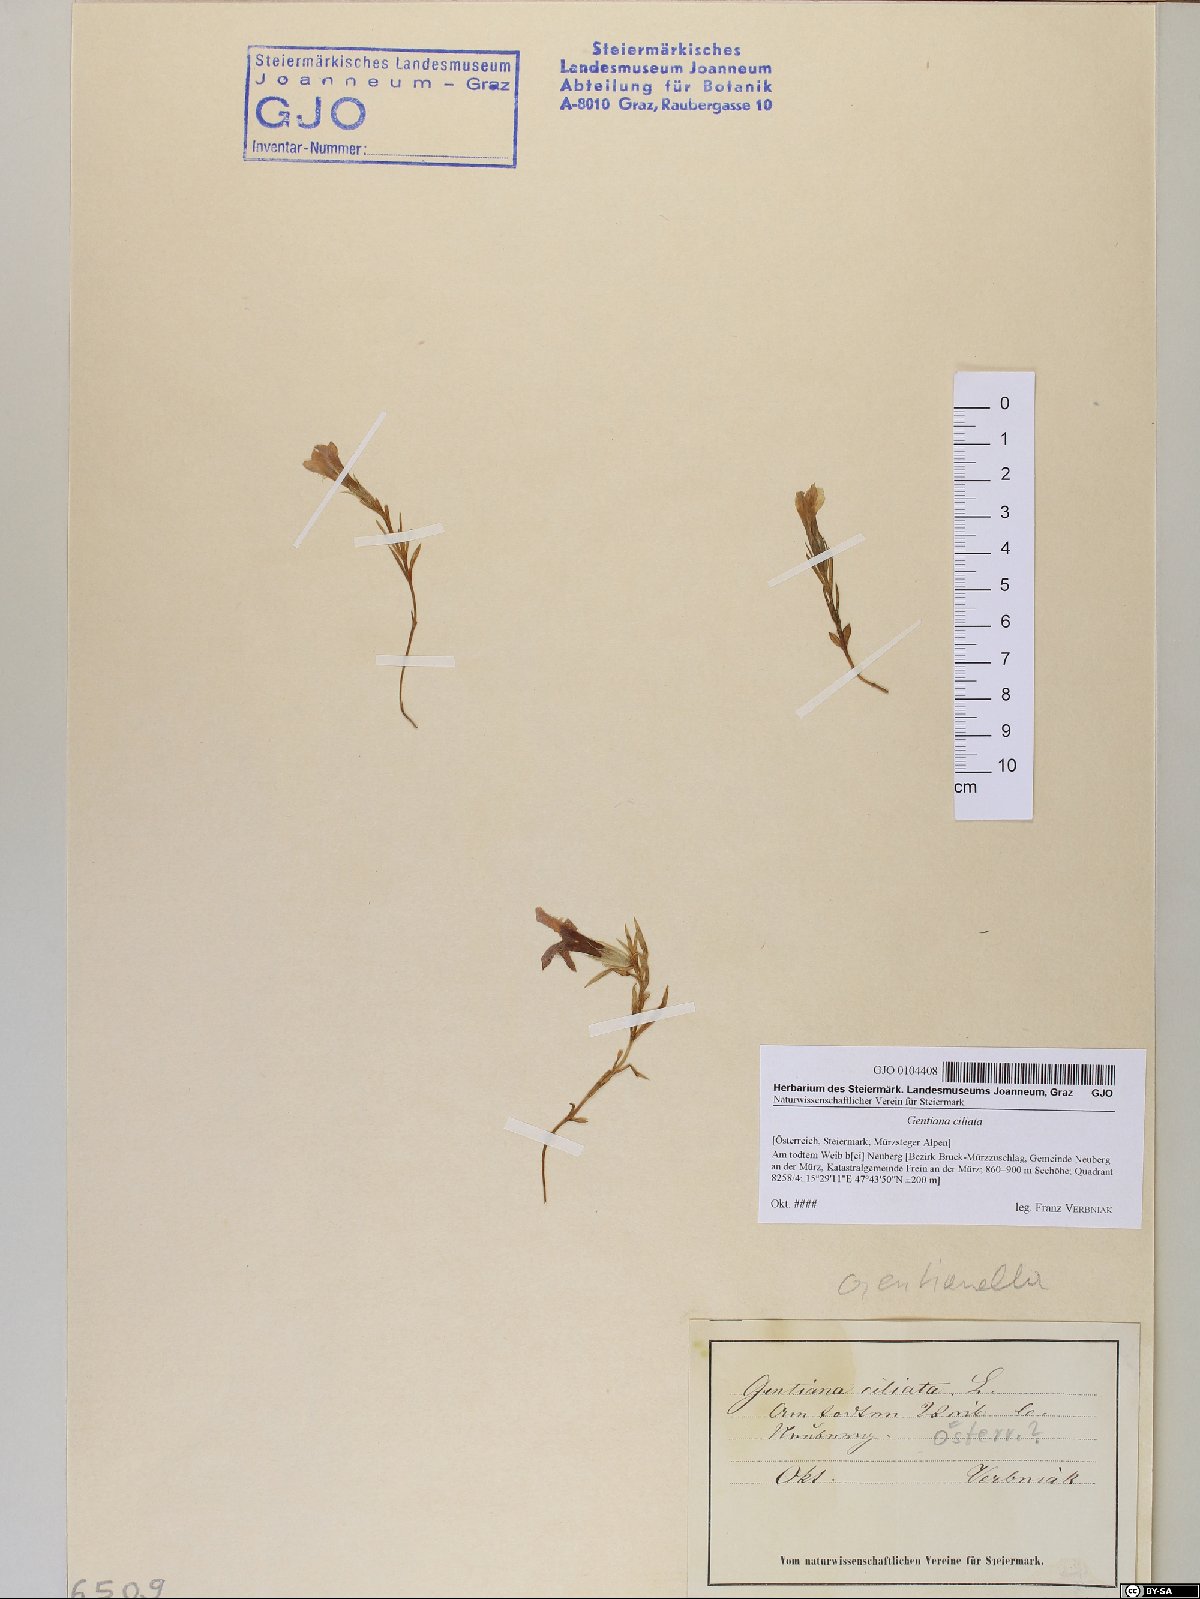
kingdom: Plantae
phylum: Tracheophyta
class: Magnoliopsida
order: Gentianales
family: Gentianaceae
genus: Gentianopsis
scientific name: Gentianopsis ciliata
